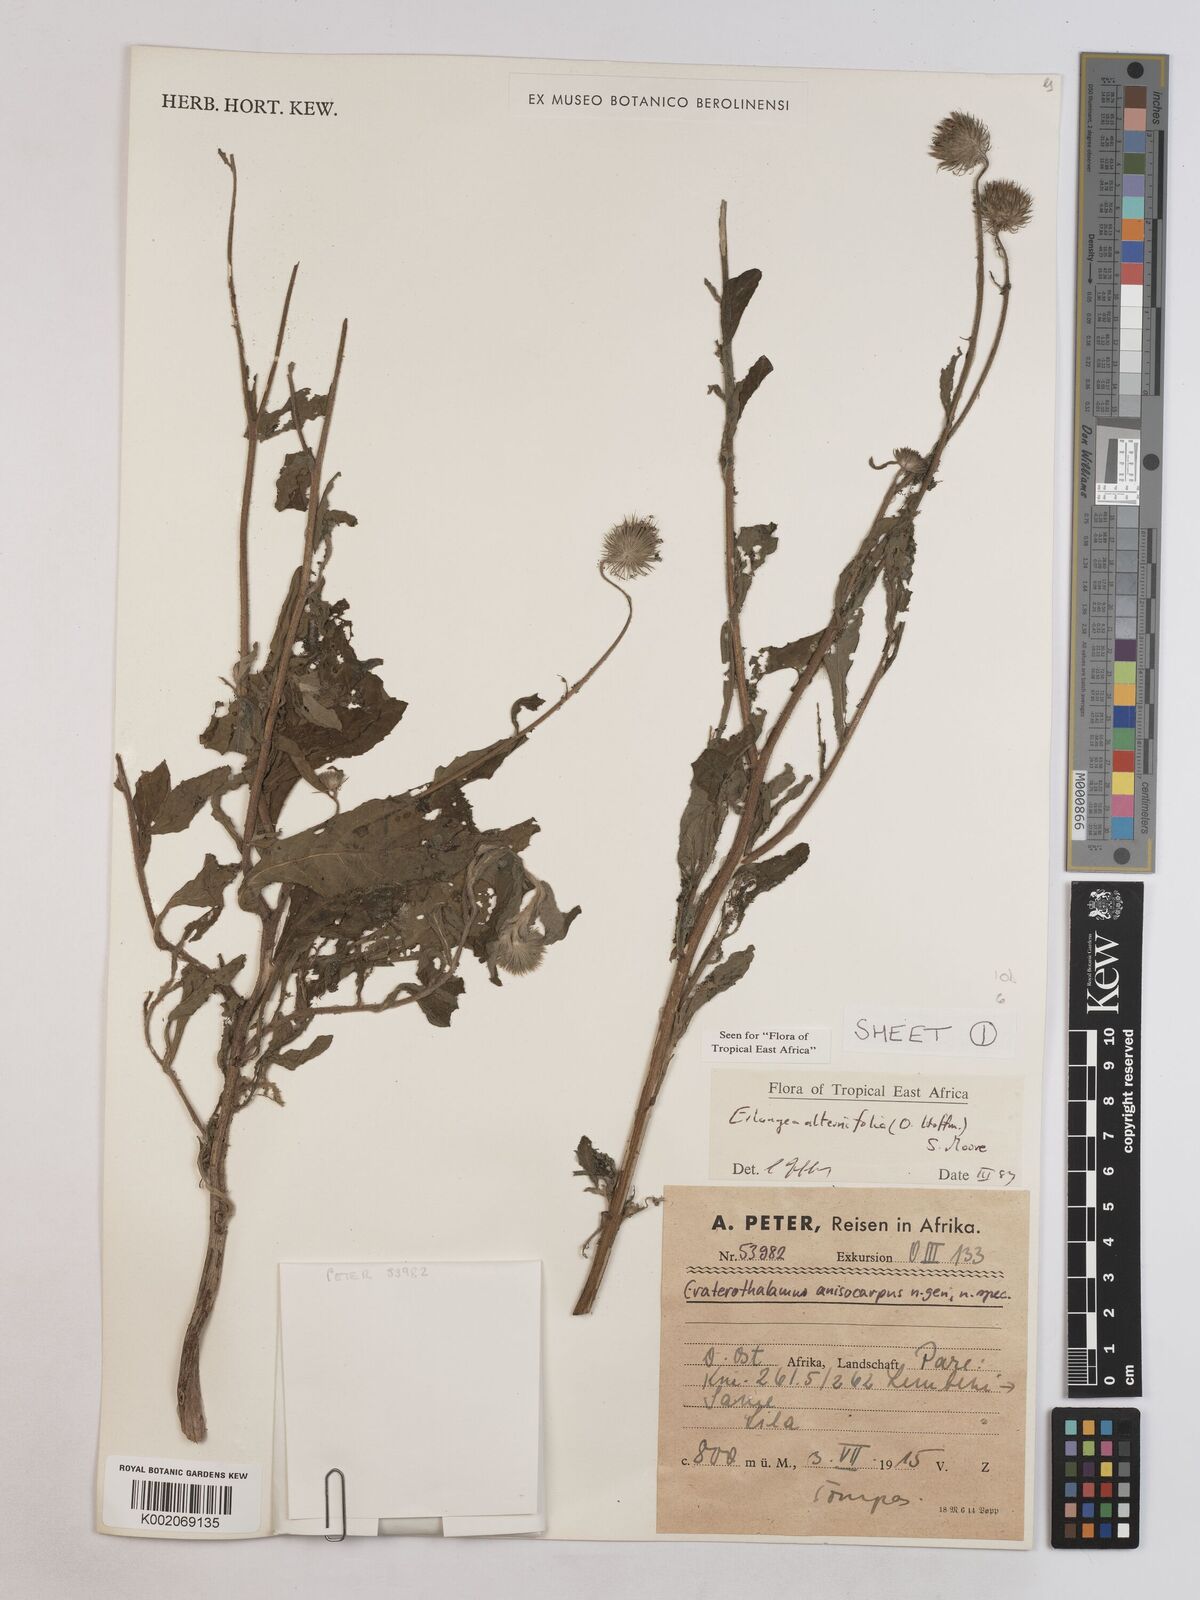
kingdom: Plantae
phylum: Tracheophyta
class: Magnoliopsida
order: Asterales
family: Asteraceae
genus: Erlangea
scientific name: Erlangea alternifolia
